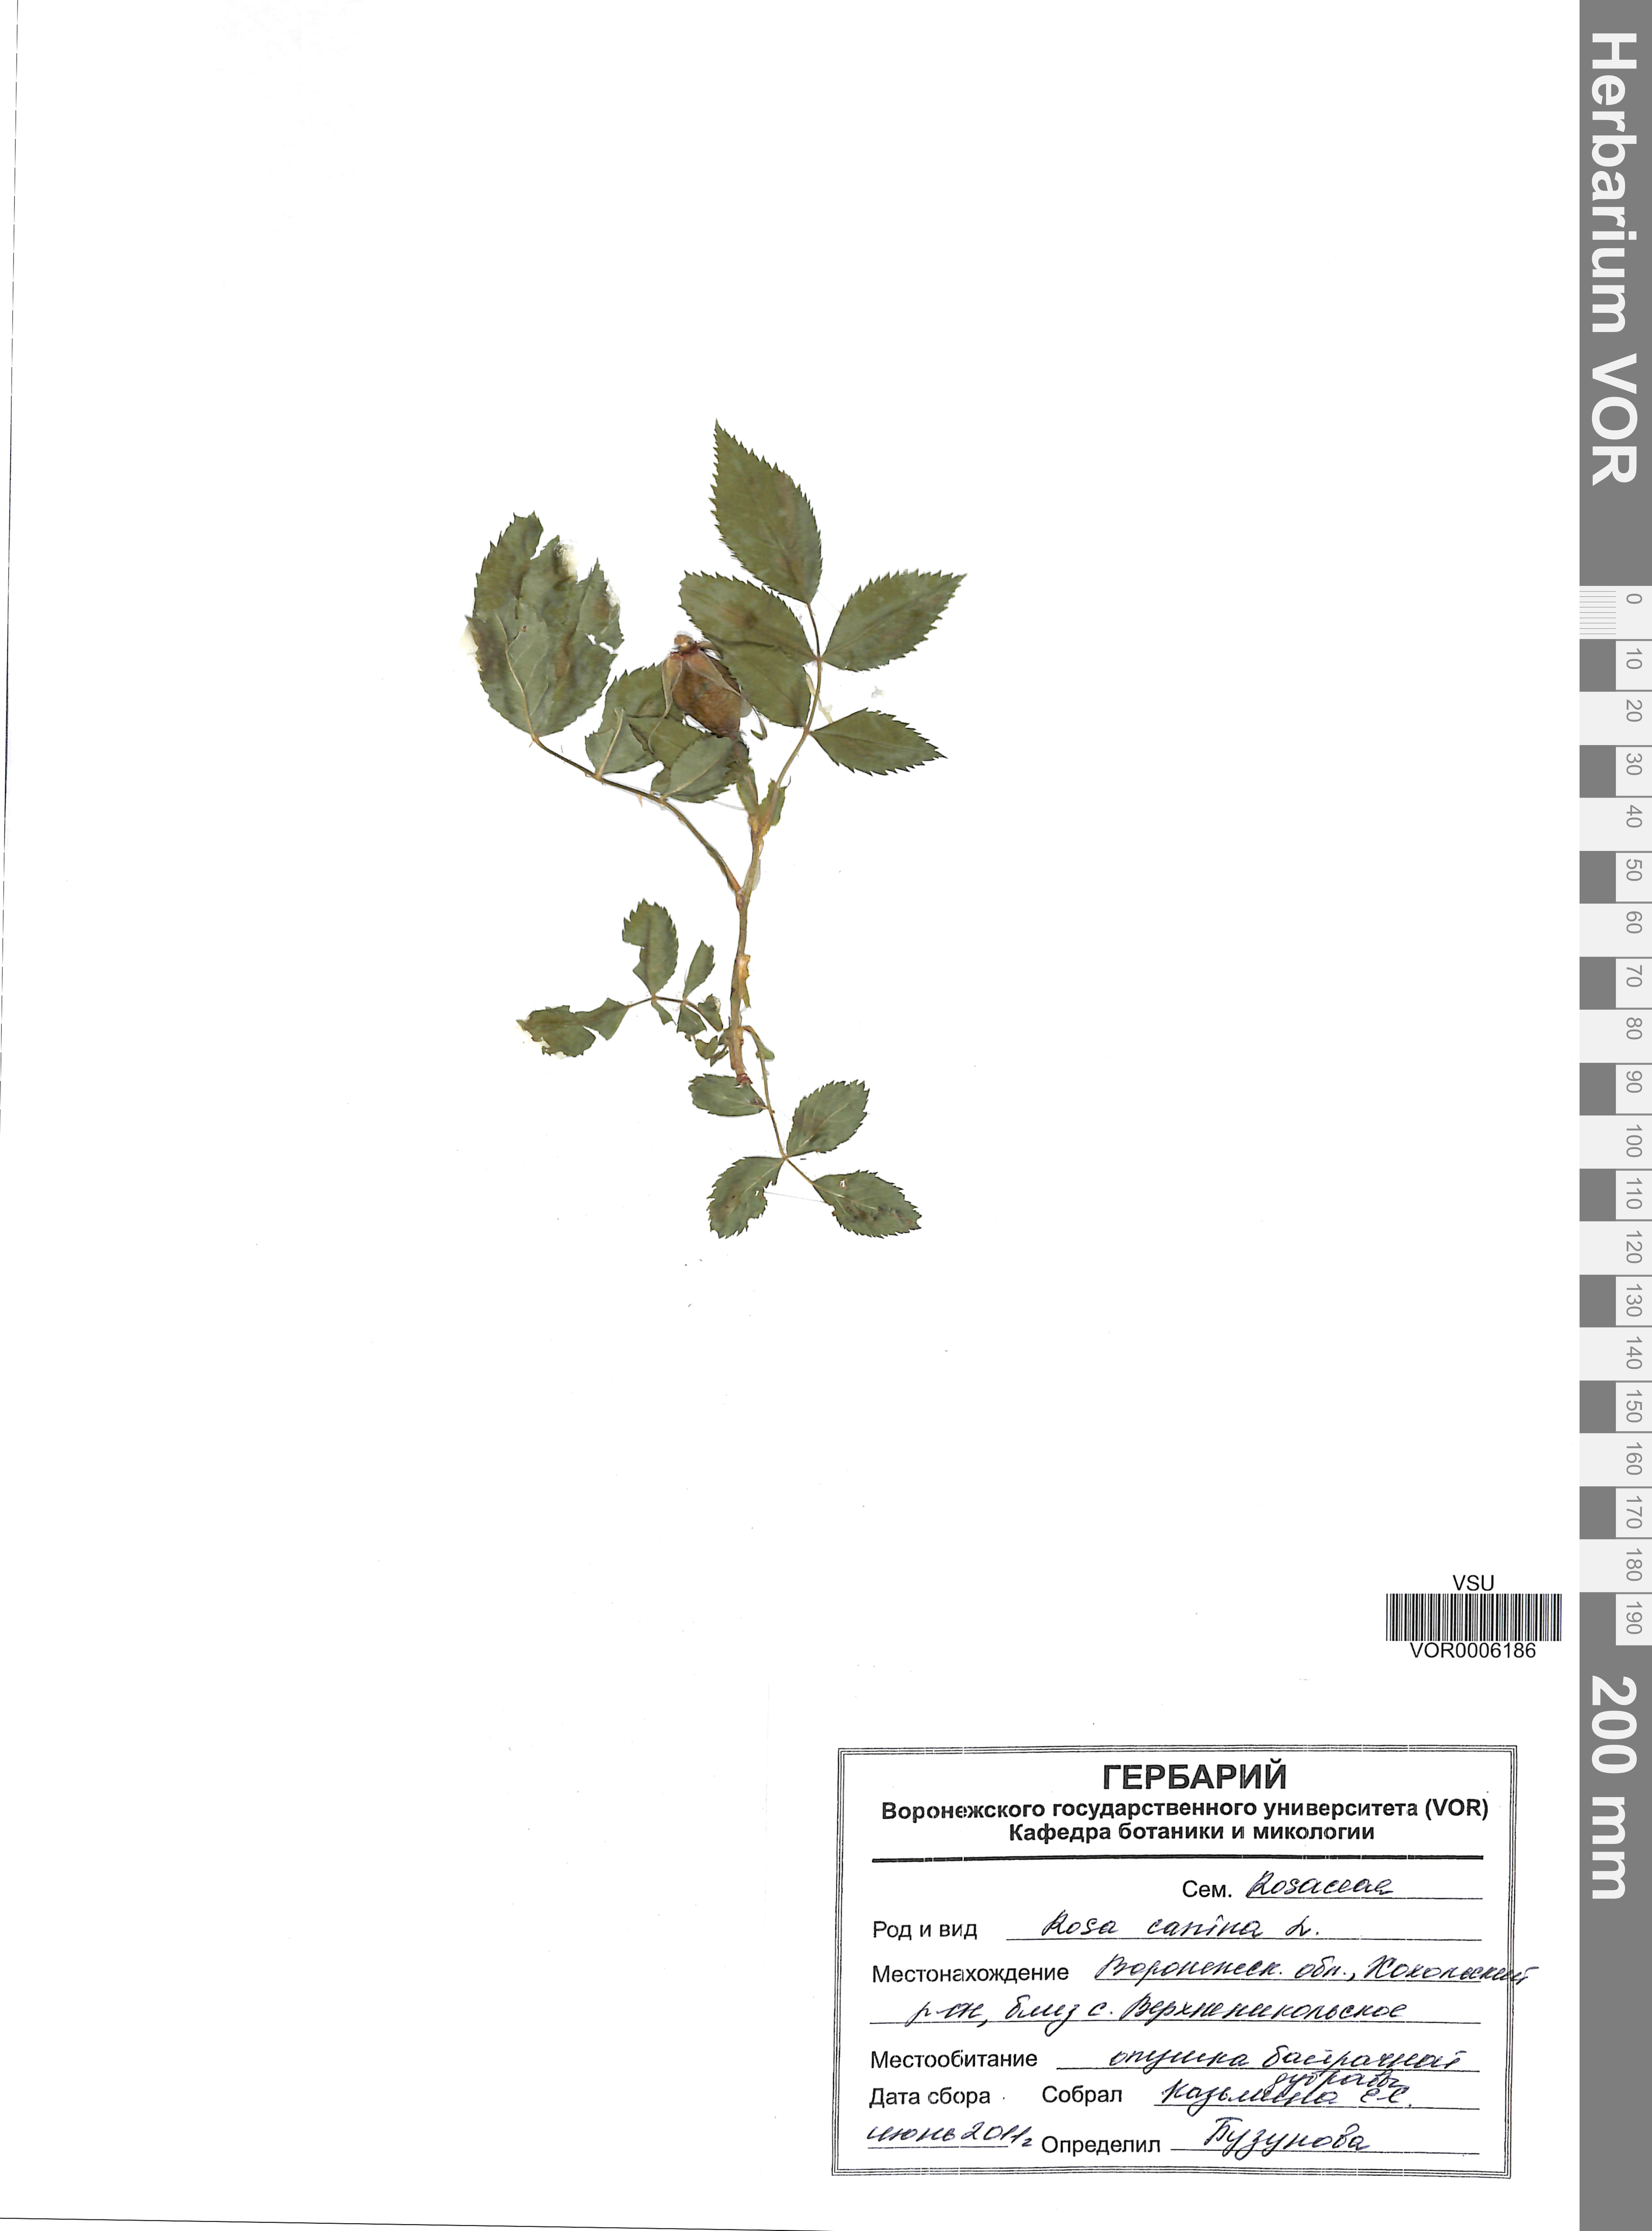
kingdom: Plantae
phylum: Tracheophyta
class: Magnoliopsida
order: Rosales
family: Rosaceae
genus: Rosa
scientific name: Rosa canina
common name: Dog rose
